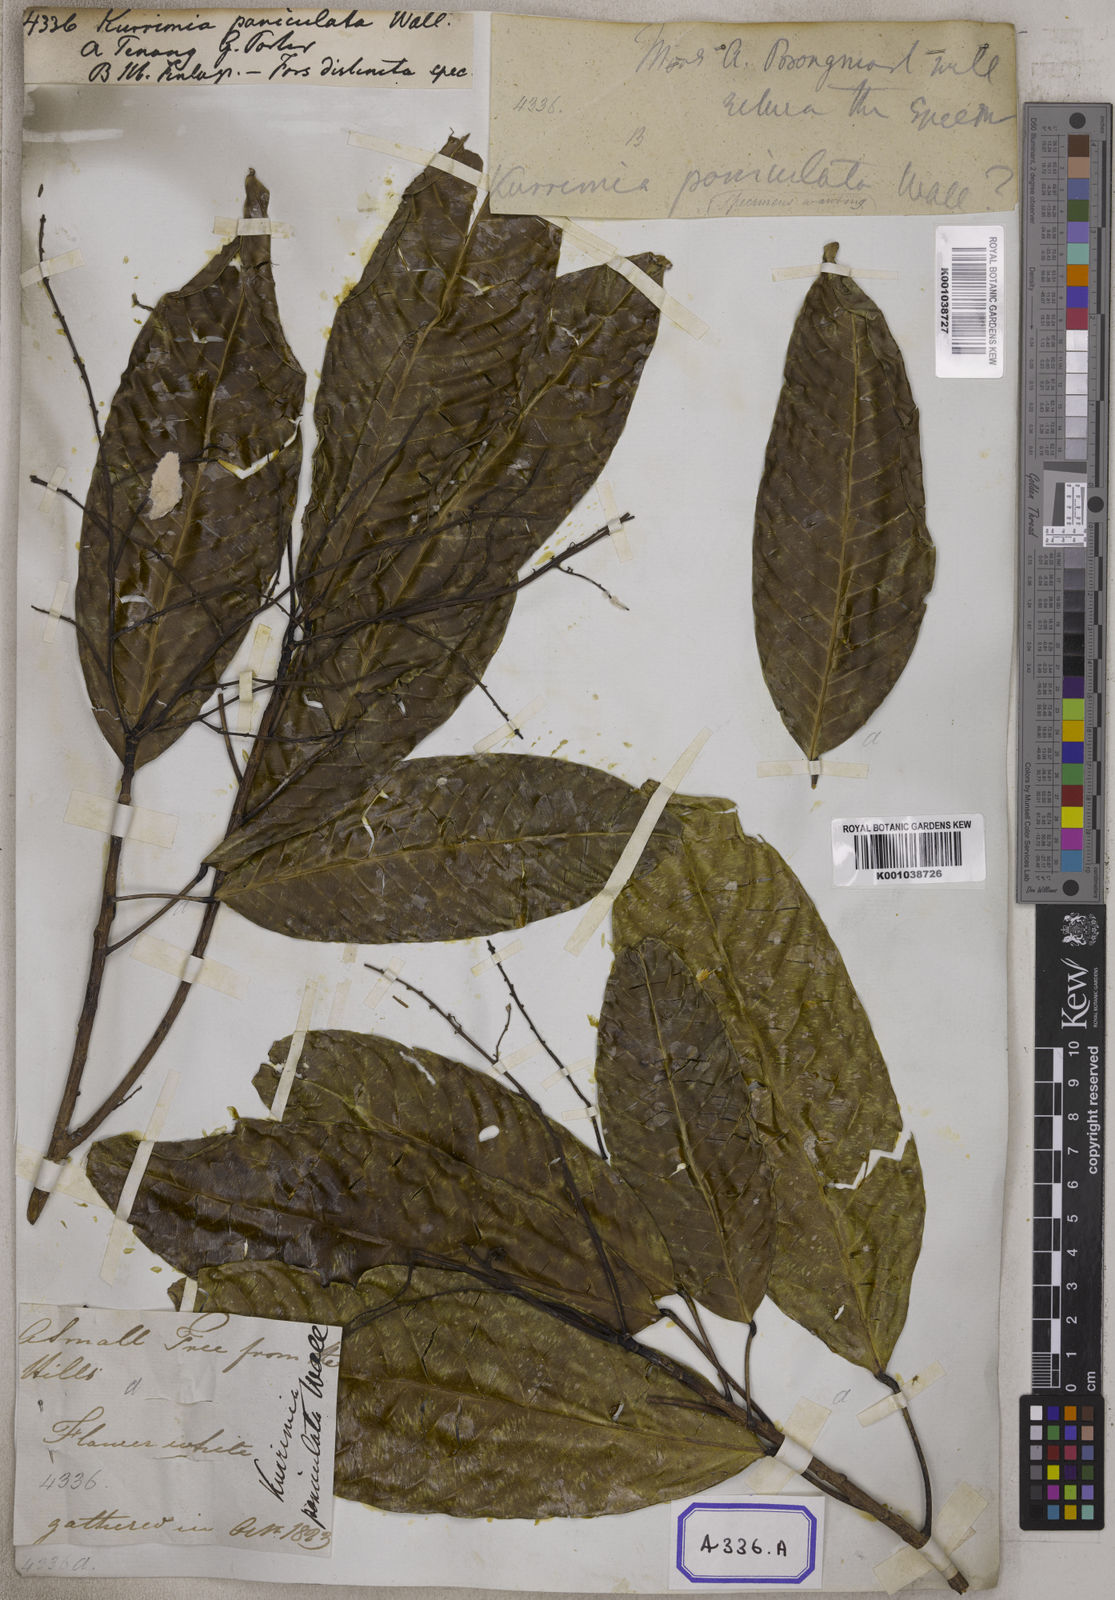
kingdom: Plantae
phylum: Tracheophyta
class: Magnoliopsida
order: Escalloniales
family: Escalloniaceae
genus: Kurrimia
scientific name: Kurrimia
